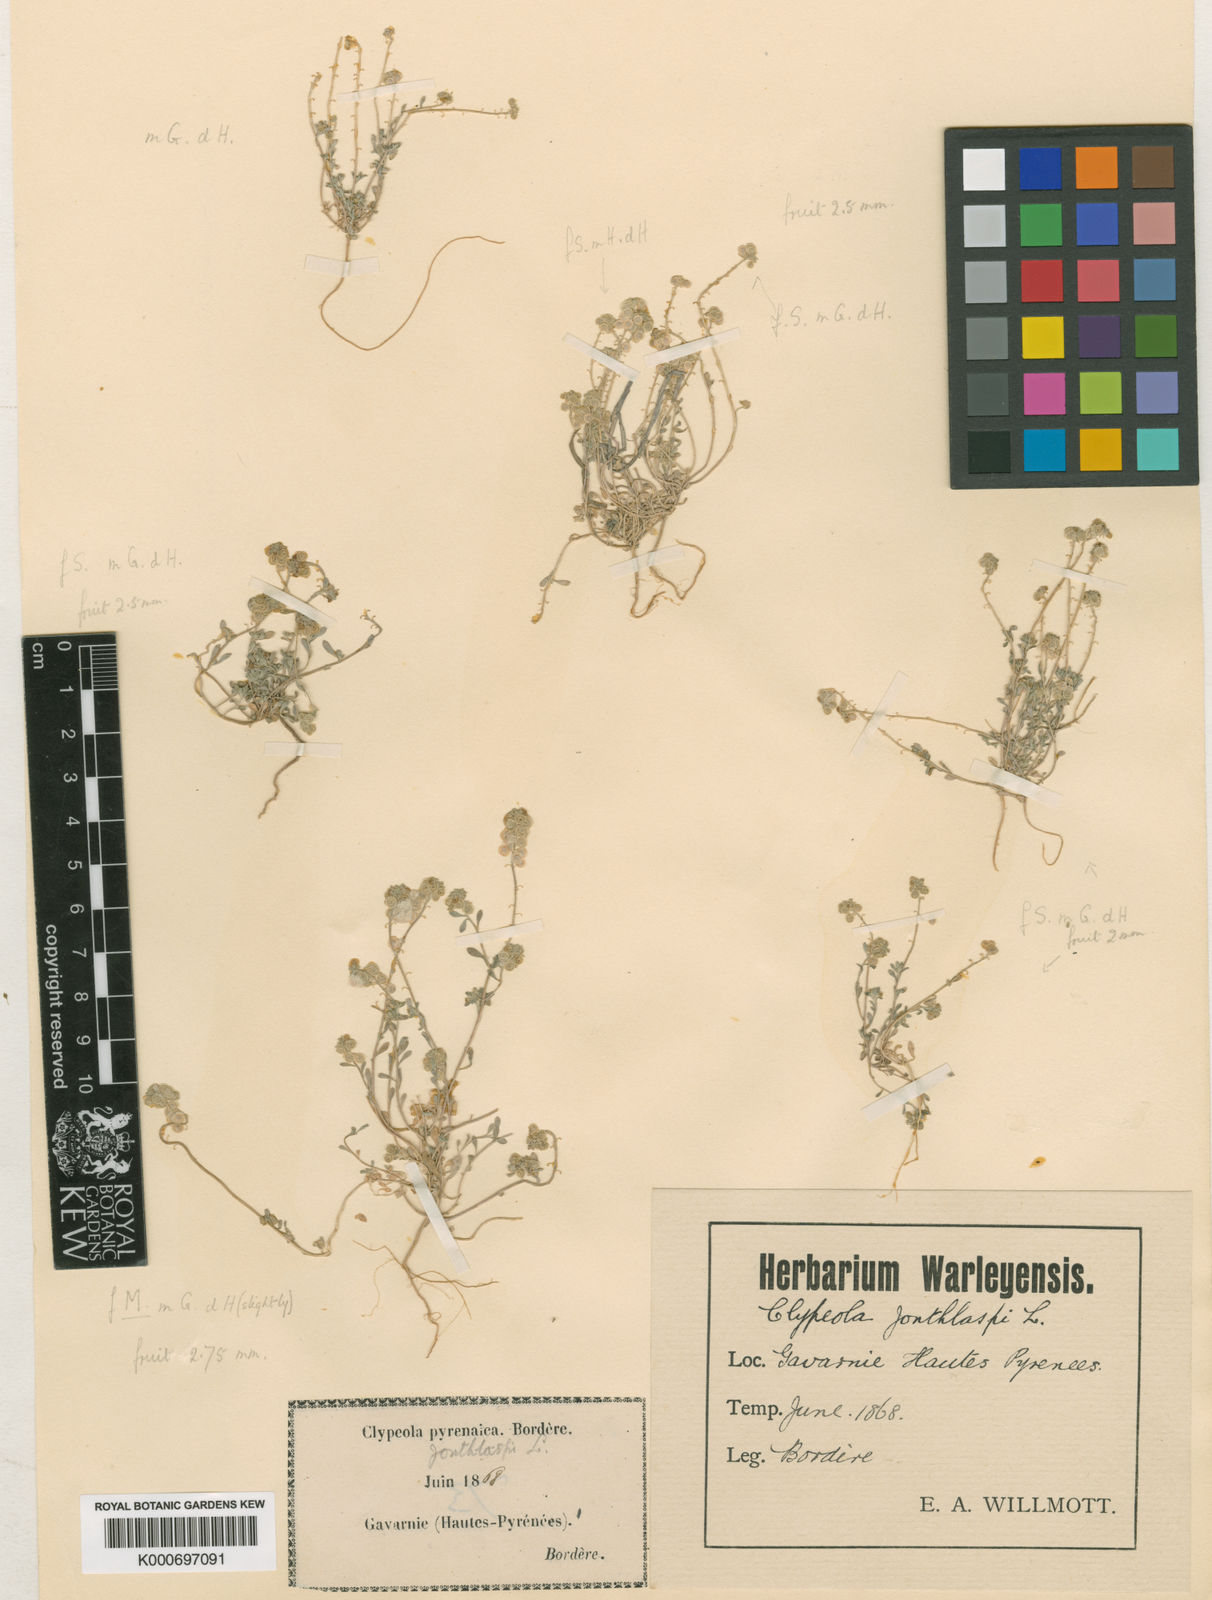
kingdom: Plantae
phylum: Tracheophyta
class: Magnoliopsida
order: Brassicales
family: Brassicaceae
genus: Clypeola
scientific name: Clypeola jonthlaspi
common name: Disk cress
